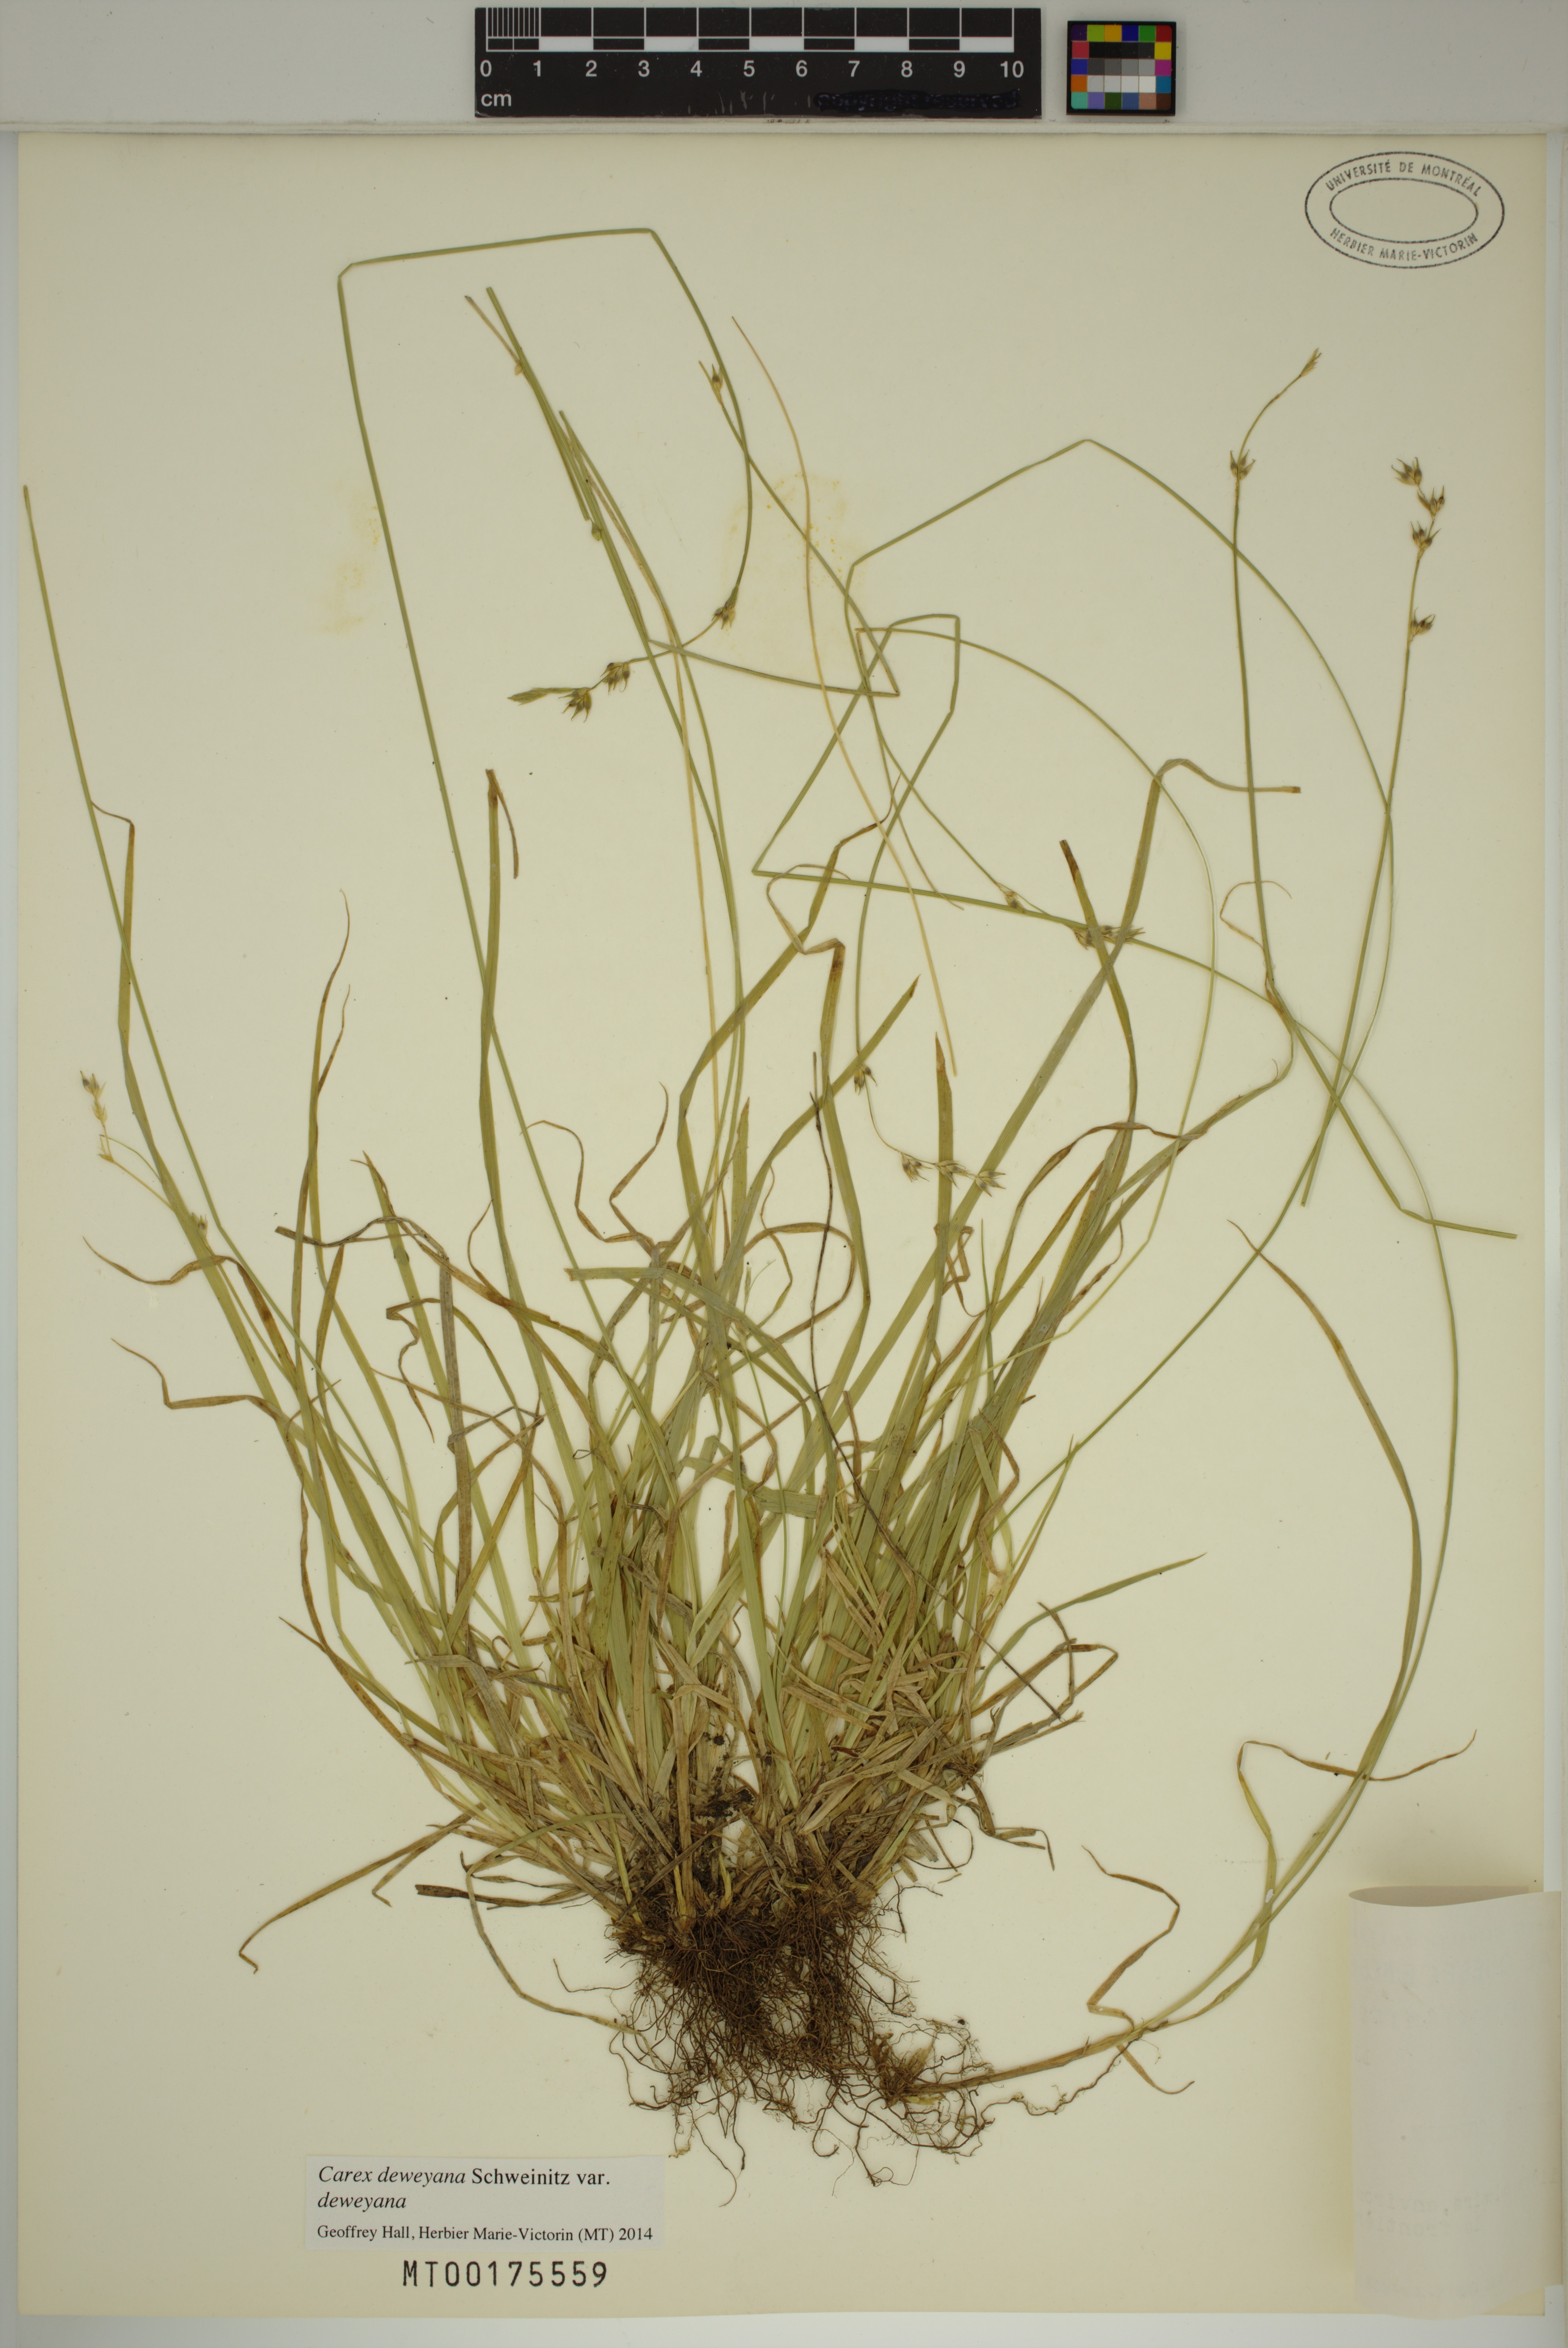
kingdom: Plantae
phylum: Tracheophyta
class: Liliopsida
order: Poales
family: Cyperaceae
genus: Carex
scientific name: Carex deweyana
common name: Dewey's sedge
